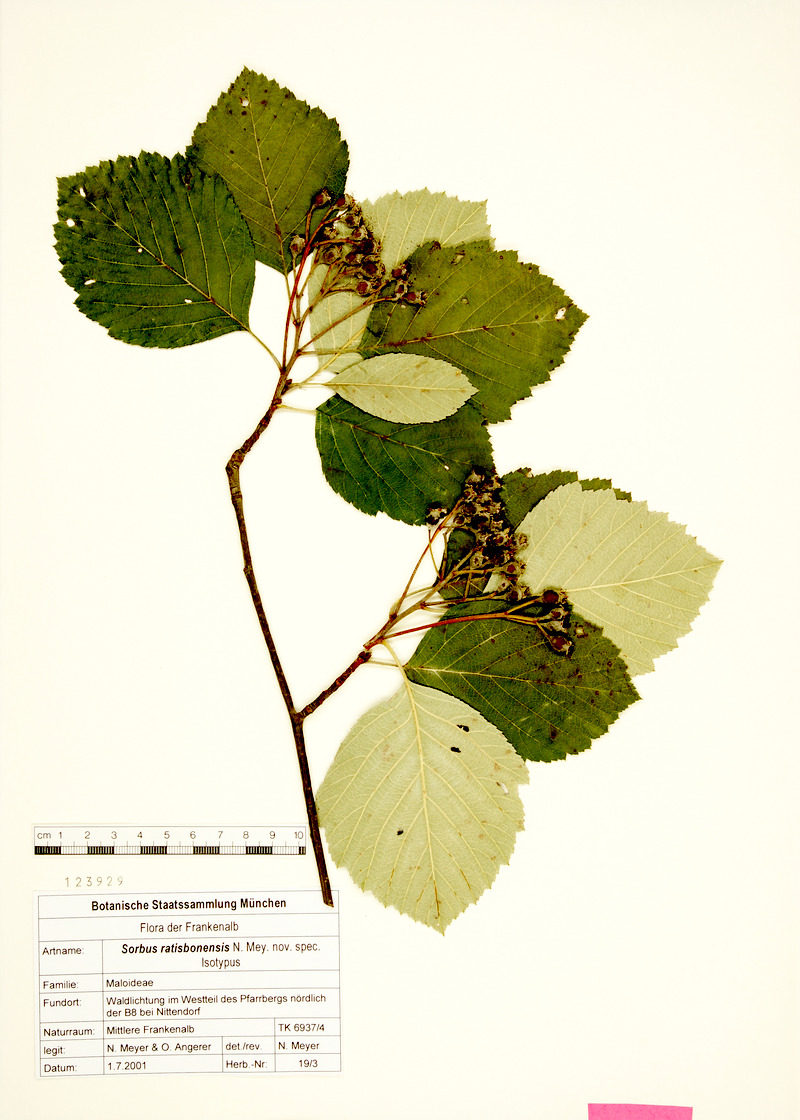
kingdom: Plantae
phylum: Tracheophyta
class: Magnoliopsida
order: Rosales
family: Rosaceae
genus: Karpatiosorbus
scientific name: Karpatiosorbus ratisbonensis
